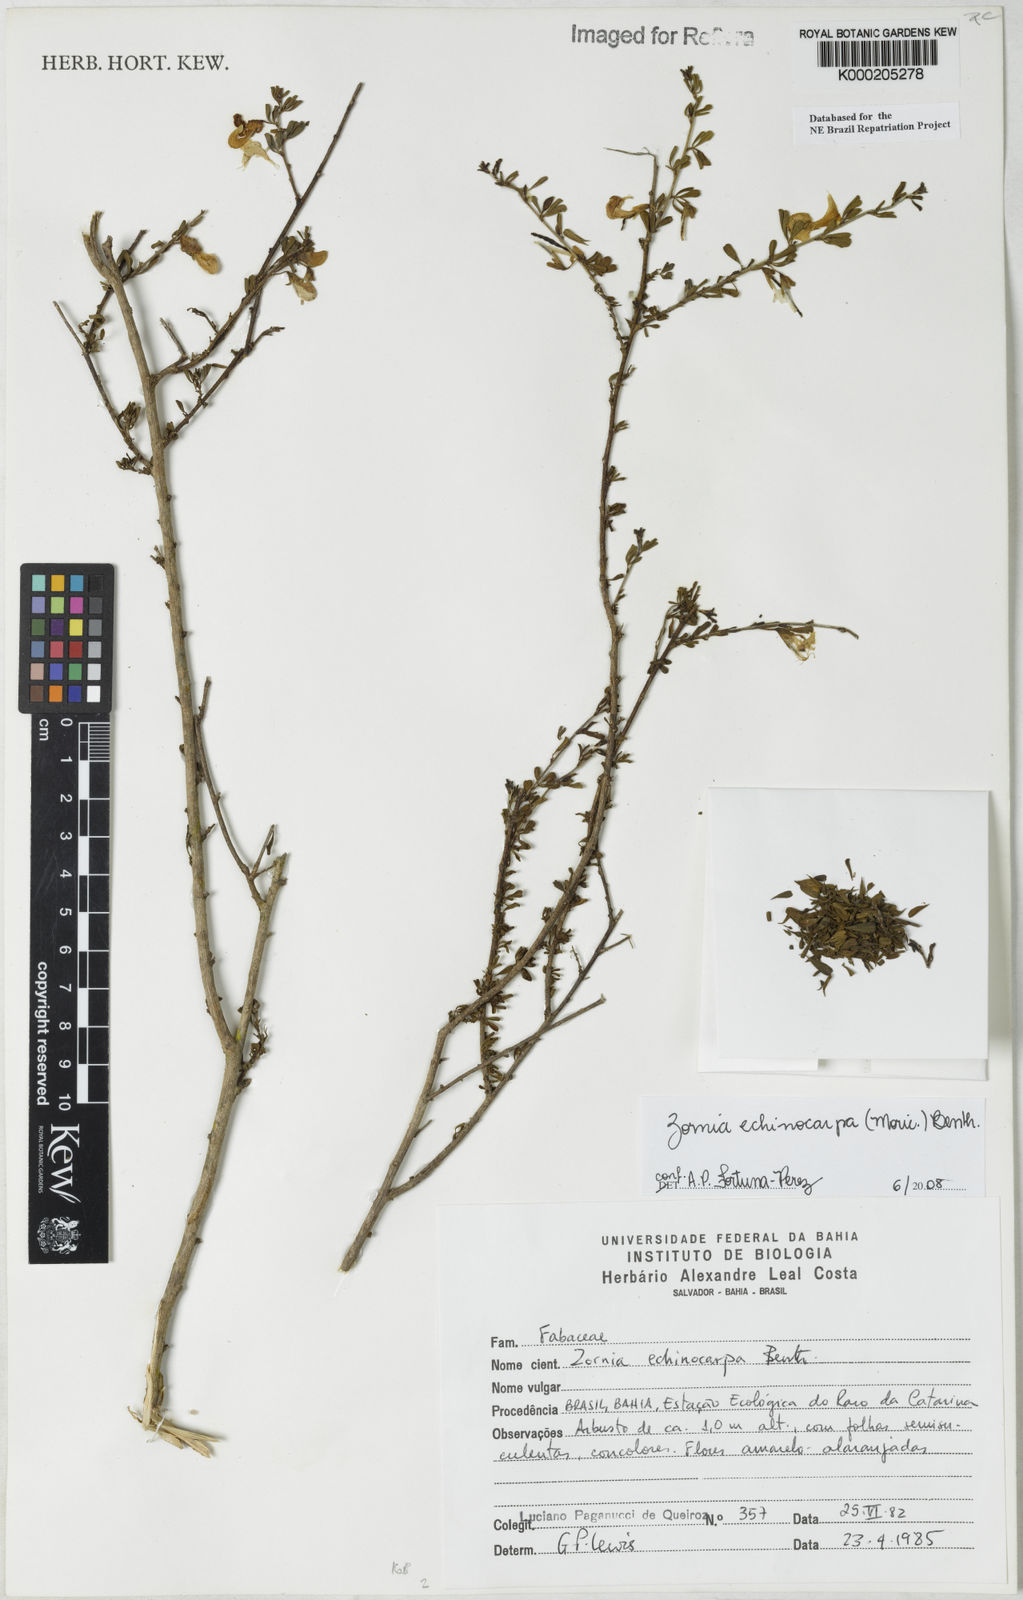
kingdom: Plantae
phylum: Tracheophyta
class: Magnoliopsida
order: Fabales
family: Fabaceae
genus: Zornia
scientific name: Zornia echinocarpa
